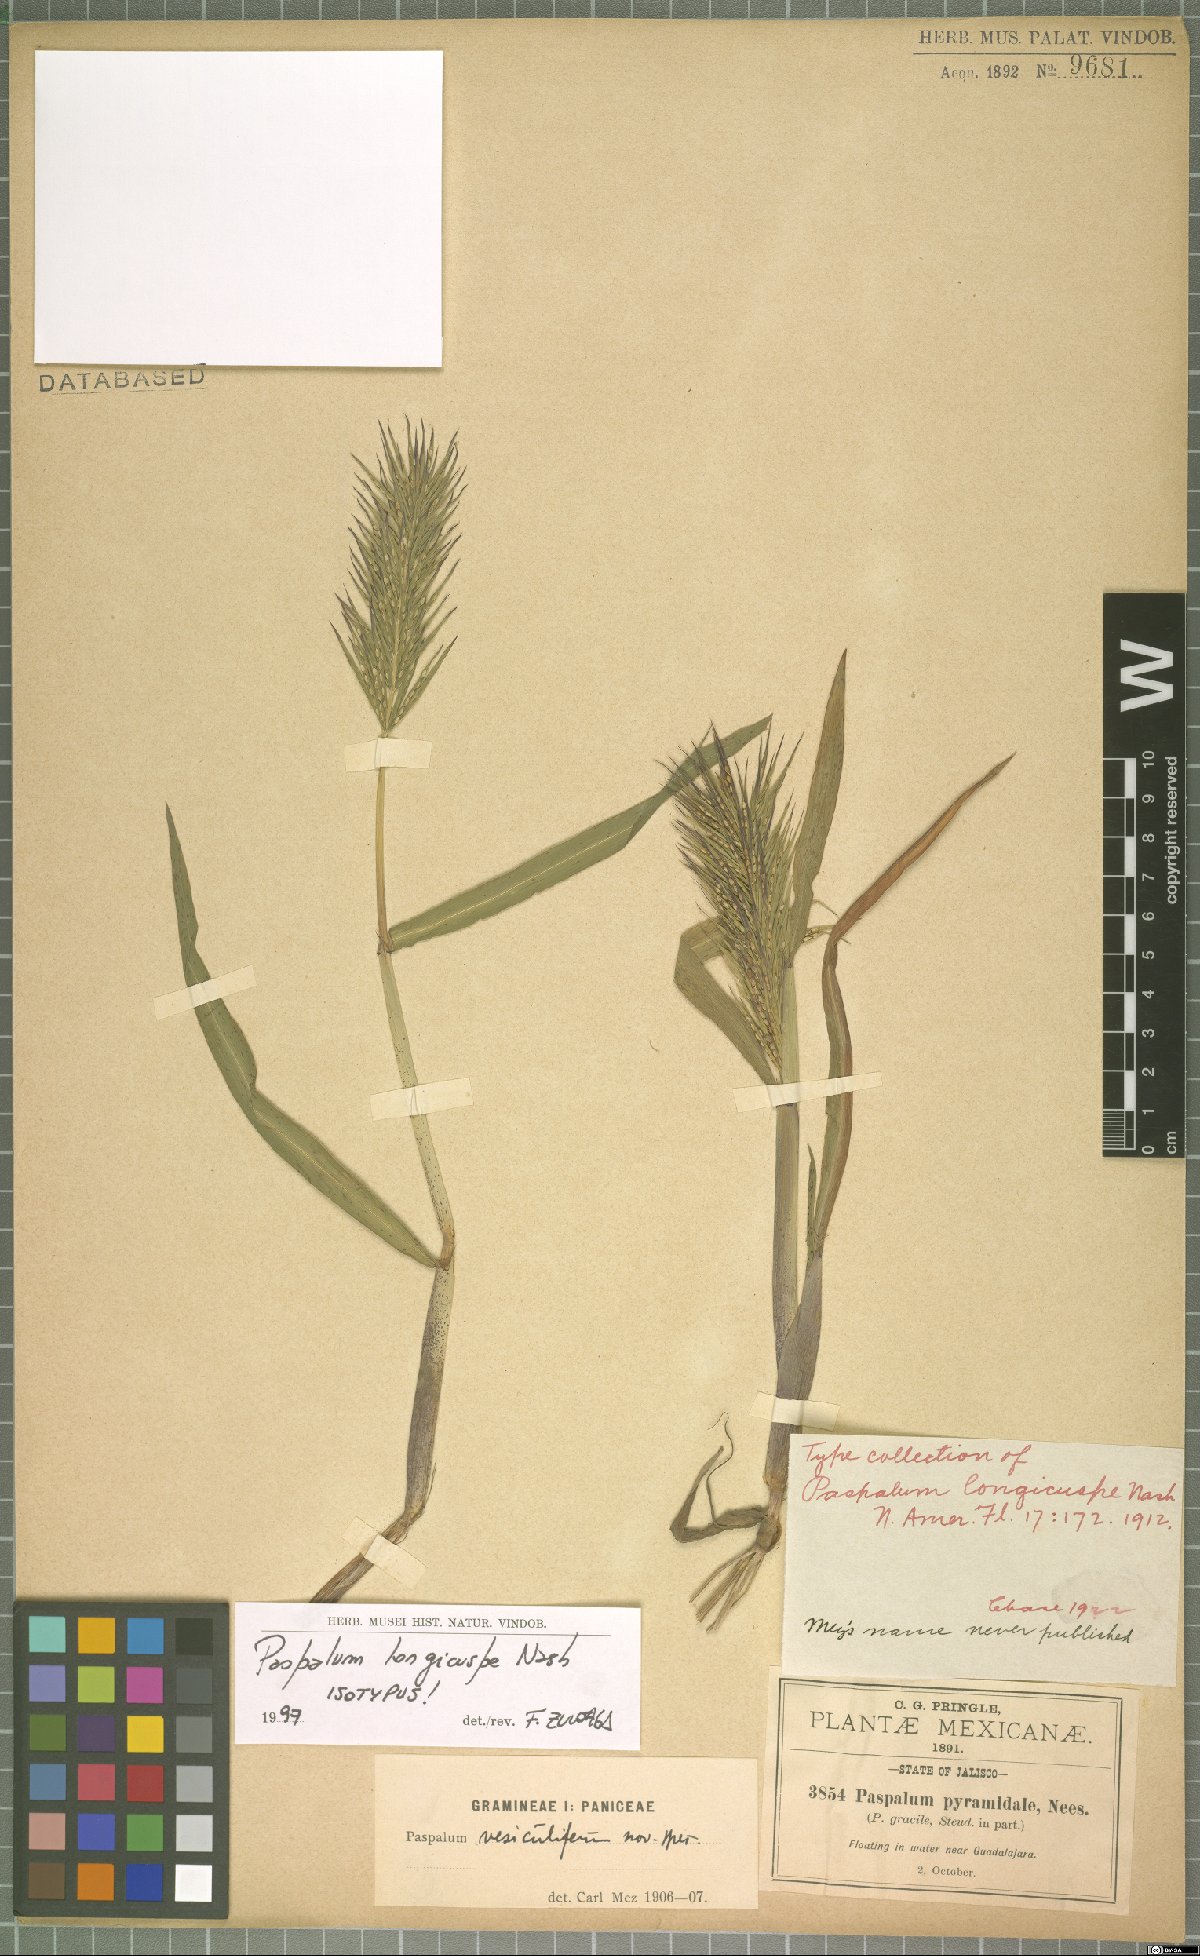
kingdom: Plantae
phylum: Tracheophyta
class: Liliopsida
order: Poales
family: Poaceae
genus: Paspalum
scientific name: Paspalum longicuspe
